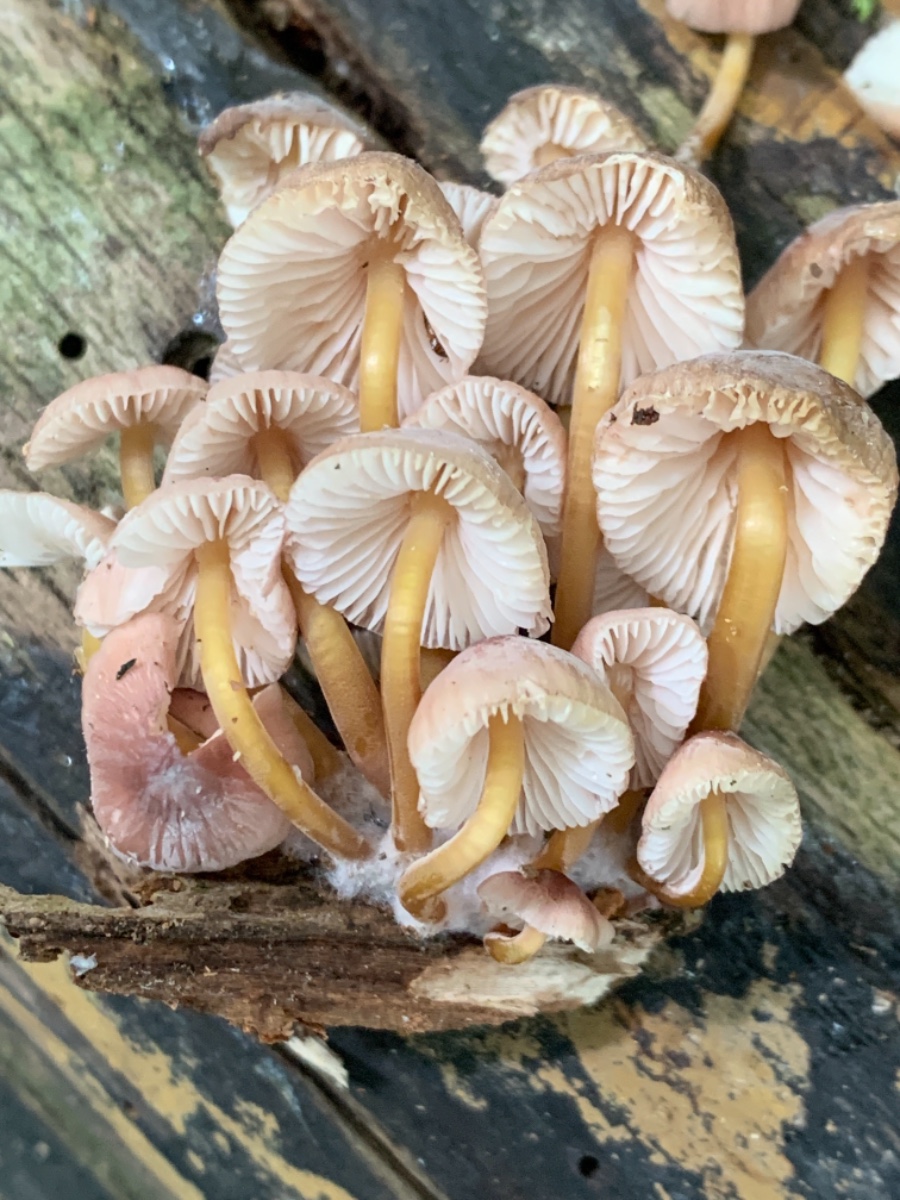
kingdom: Fungi
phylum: Basidiomycota
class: Agaricomycetes
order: Agaricales
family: Mycenaceae
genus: Mycena
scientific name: Mycena renati
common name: smuk huesvamp
